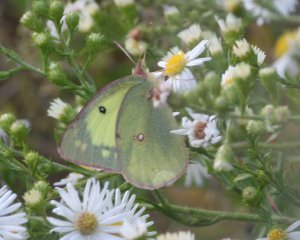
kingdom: Animalia
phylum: Arthropoda
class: Insecta
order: Lepidoptera
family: Pieridae
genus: Colias
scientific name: Colias philodice
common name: Clouded Sulphur
